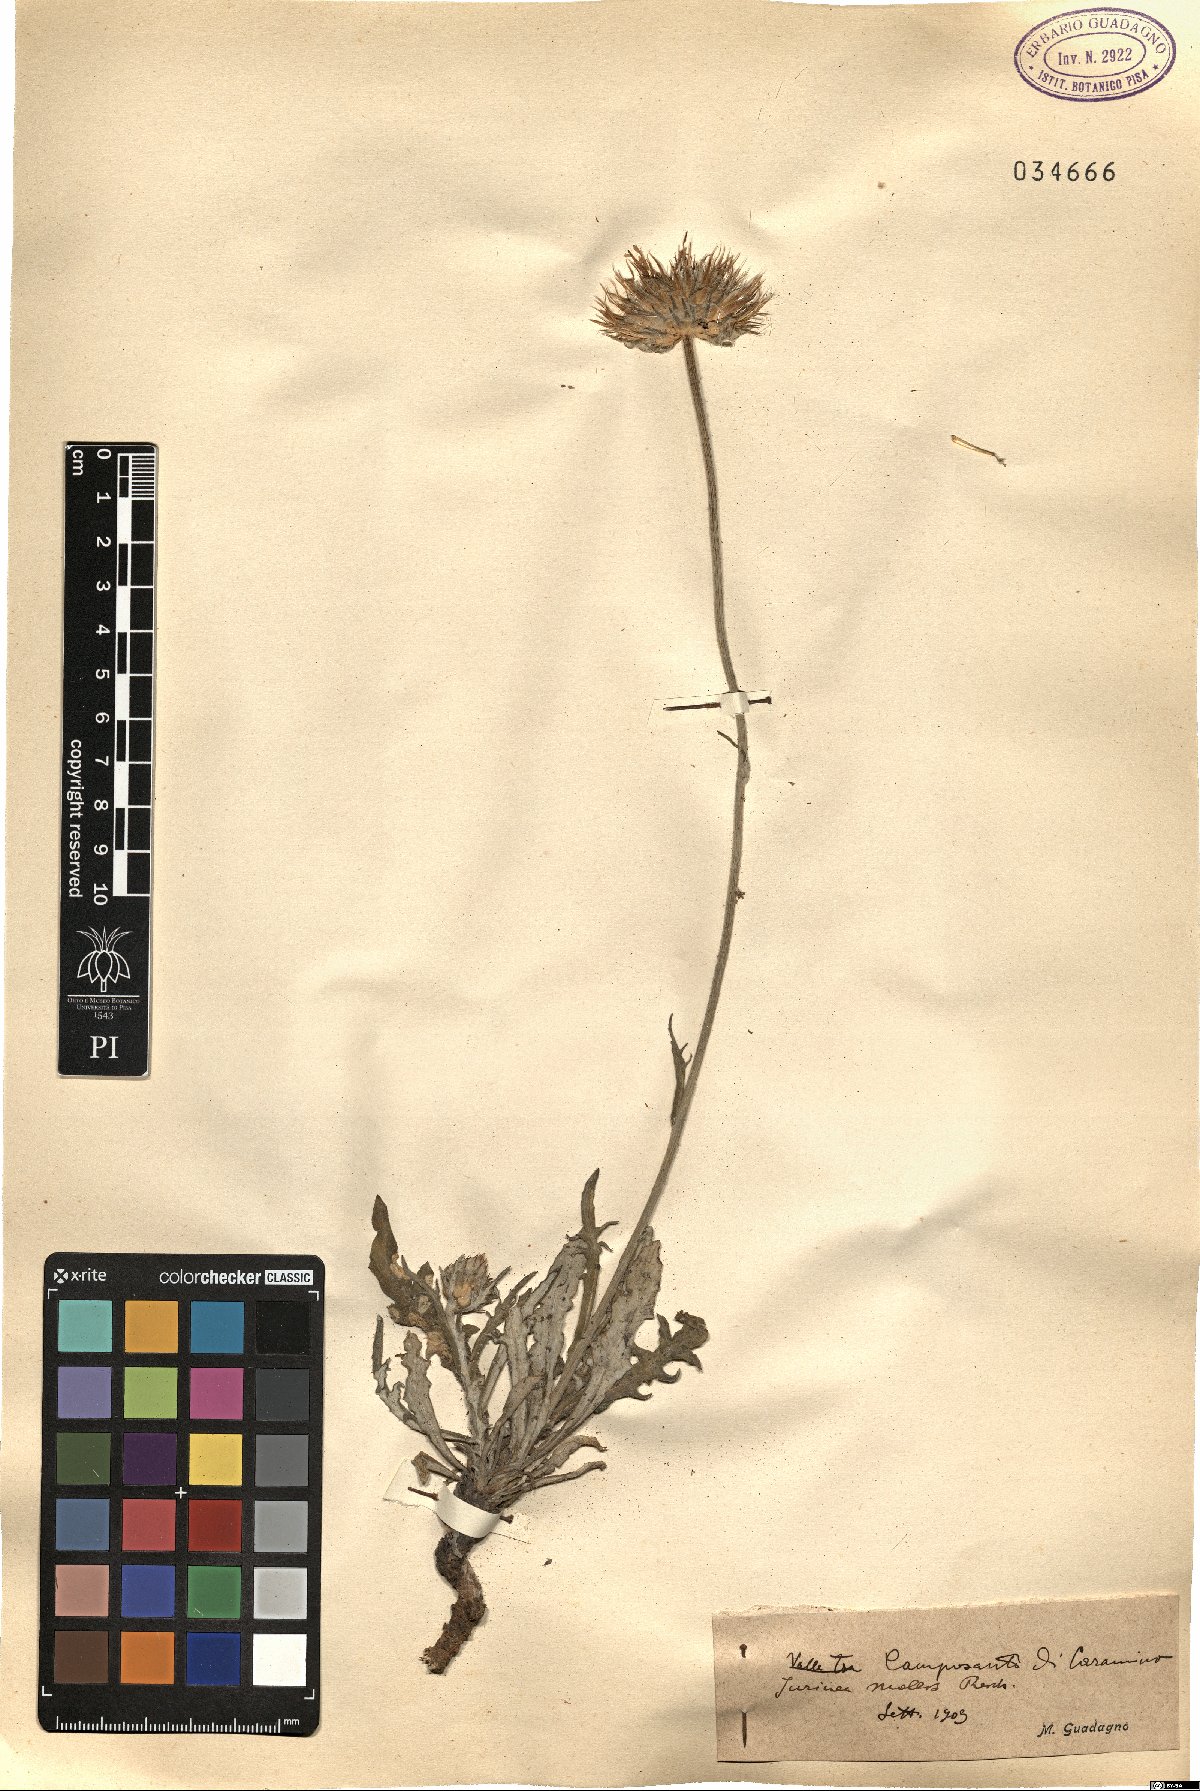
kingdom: Plantae
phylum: Tracheophyta
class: Magnoliopsida
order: Asterales
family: Asteraceae
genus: Jurinea
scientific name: Jurinea mollis
